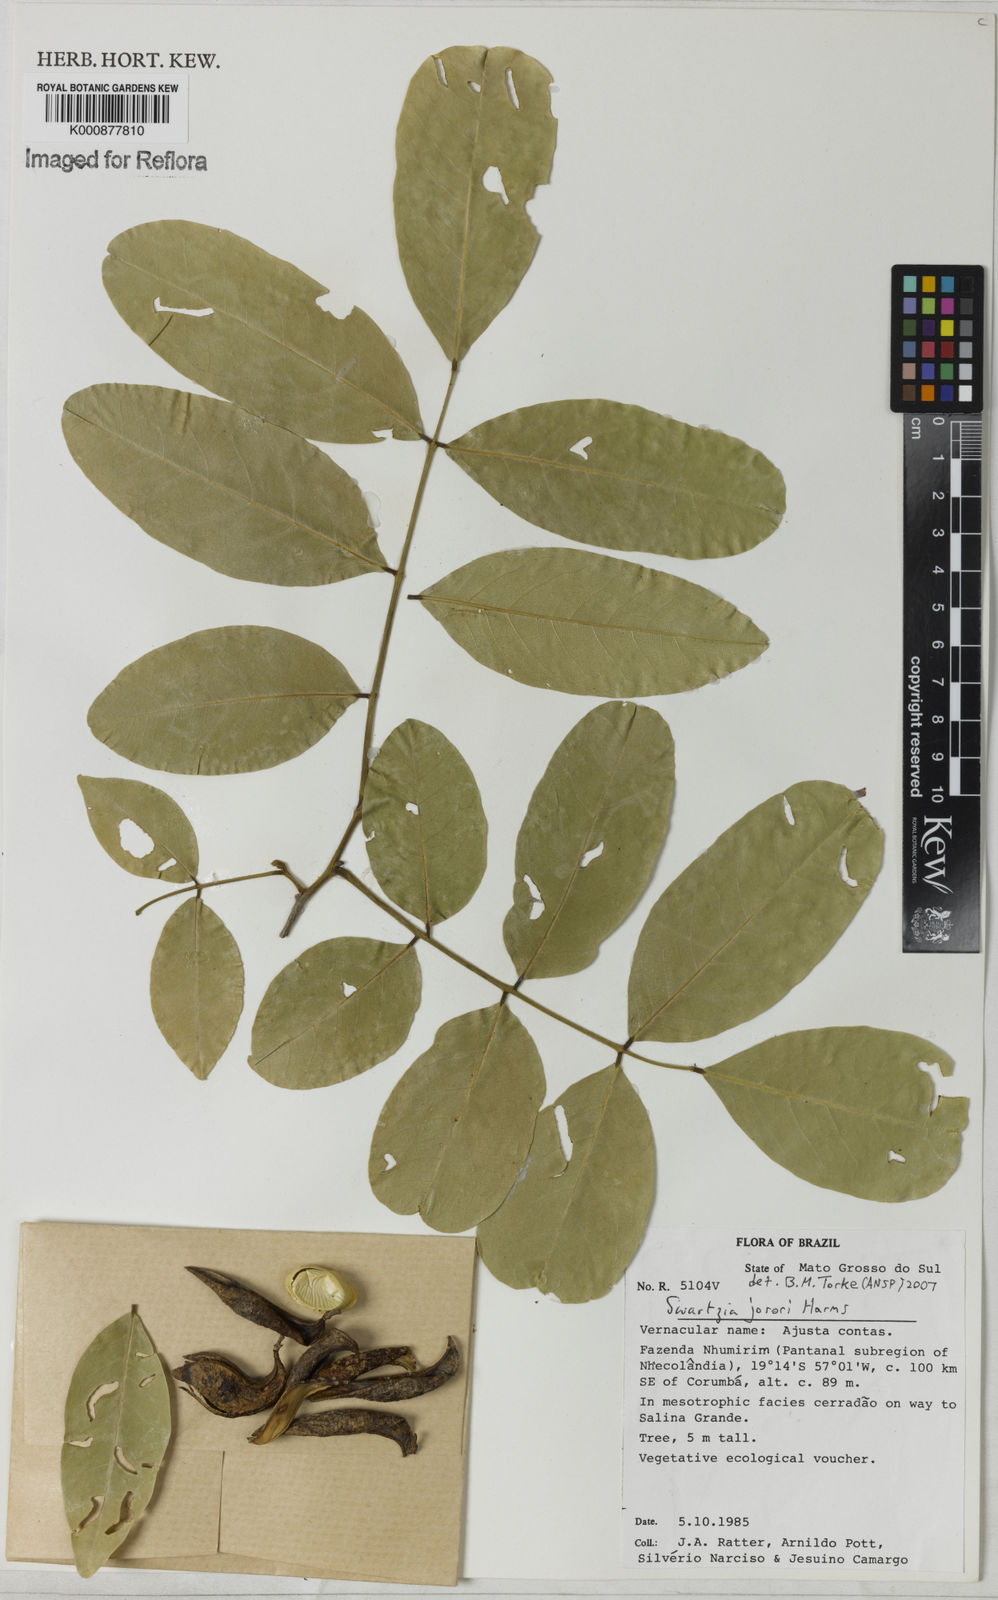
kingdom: Plantae
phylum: Tracheophyta
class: Magnoliopsida
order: Fabales
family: Fabaceae
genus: Swartzia
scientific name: Swartzia jorori
